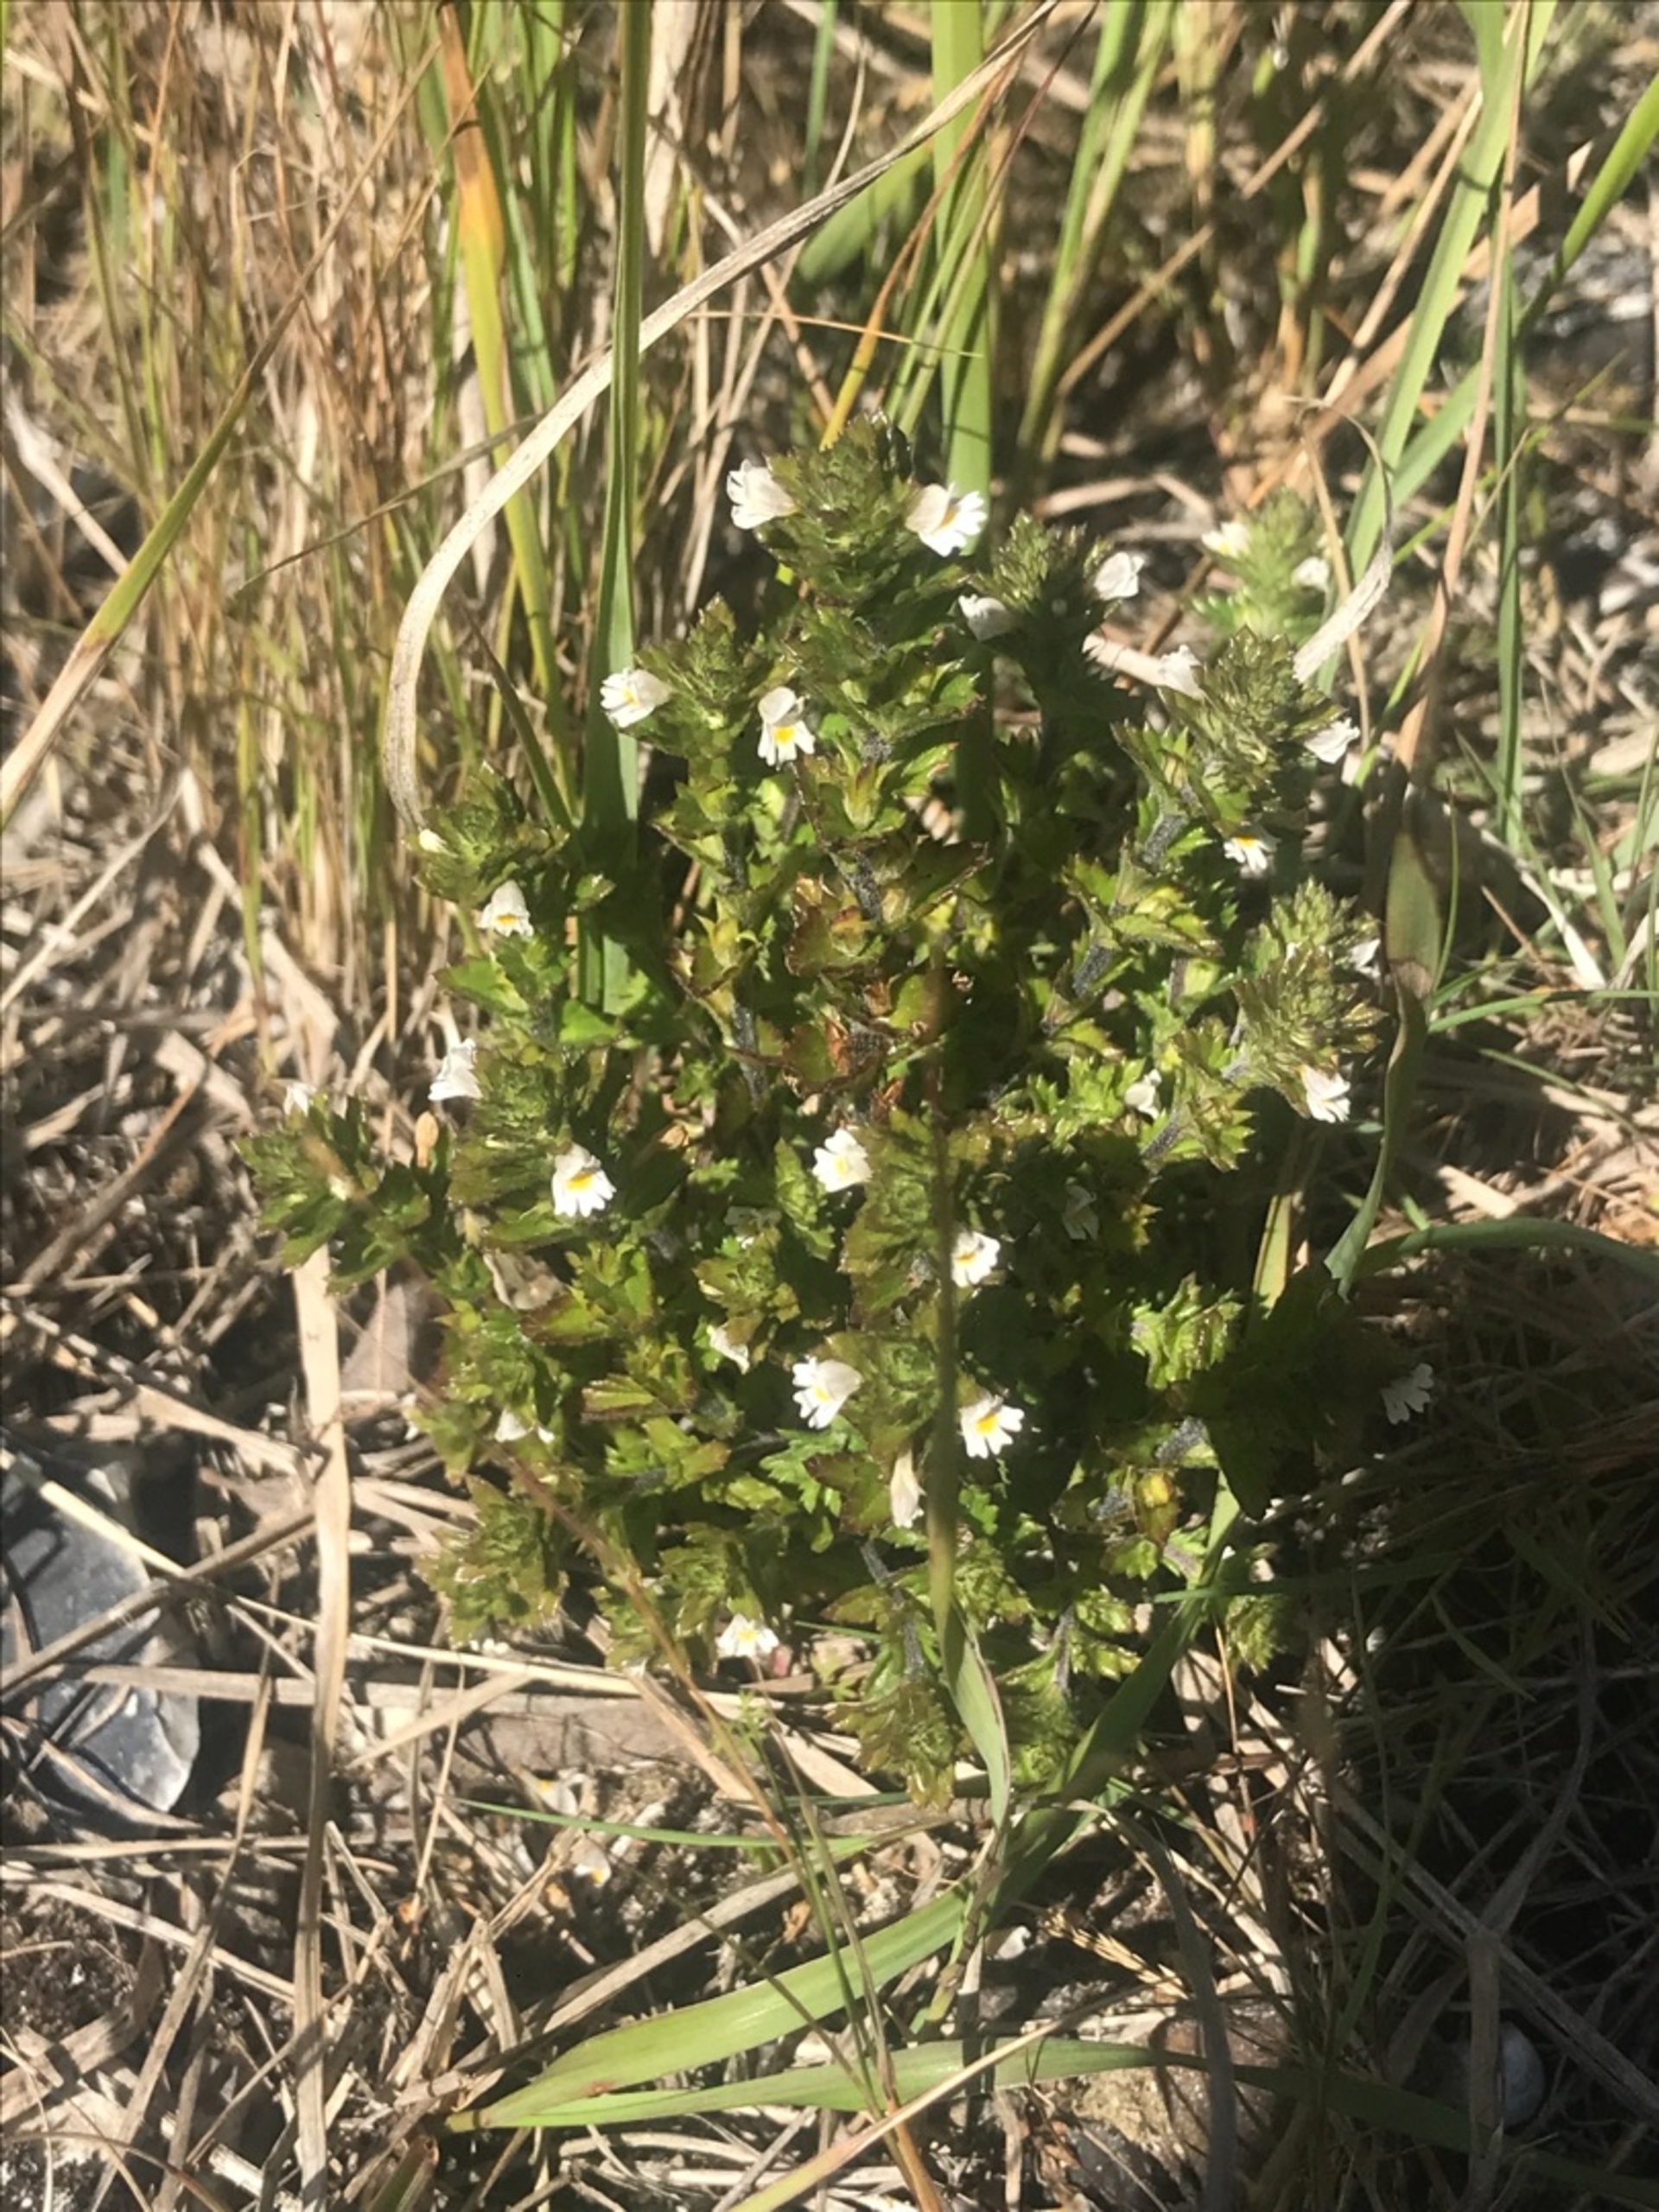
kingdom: Plantae
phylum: Tracheophyta
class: Magnoliopsida
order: Lamiales
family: Orobanchaceae
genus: Euphrasia
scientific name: Euphrasia nemorosa
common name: Kort øjentrøst
